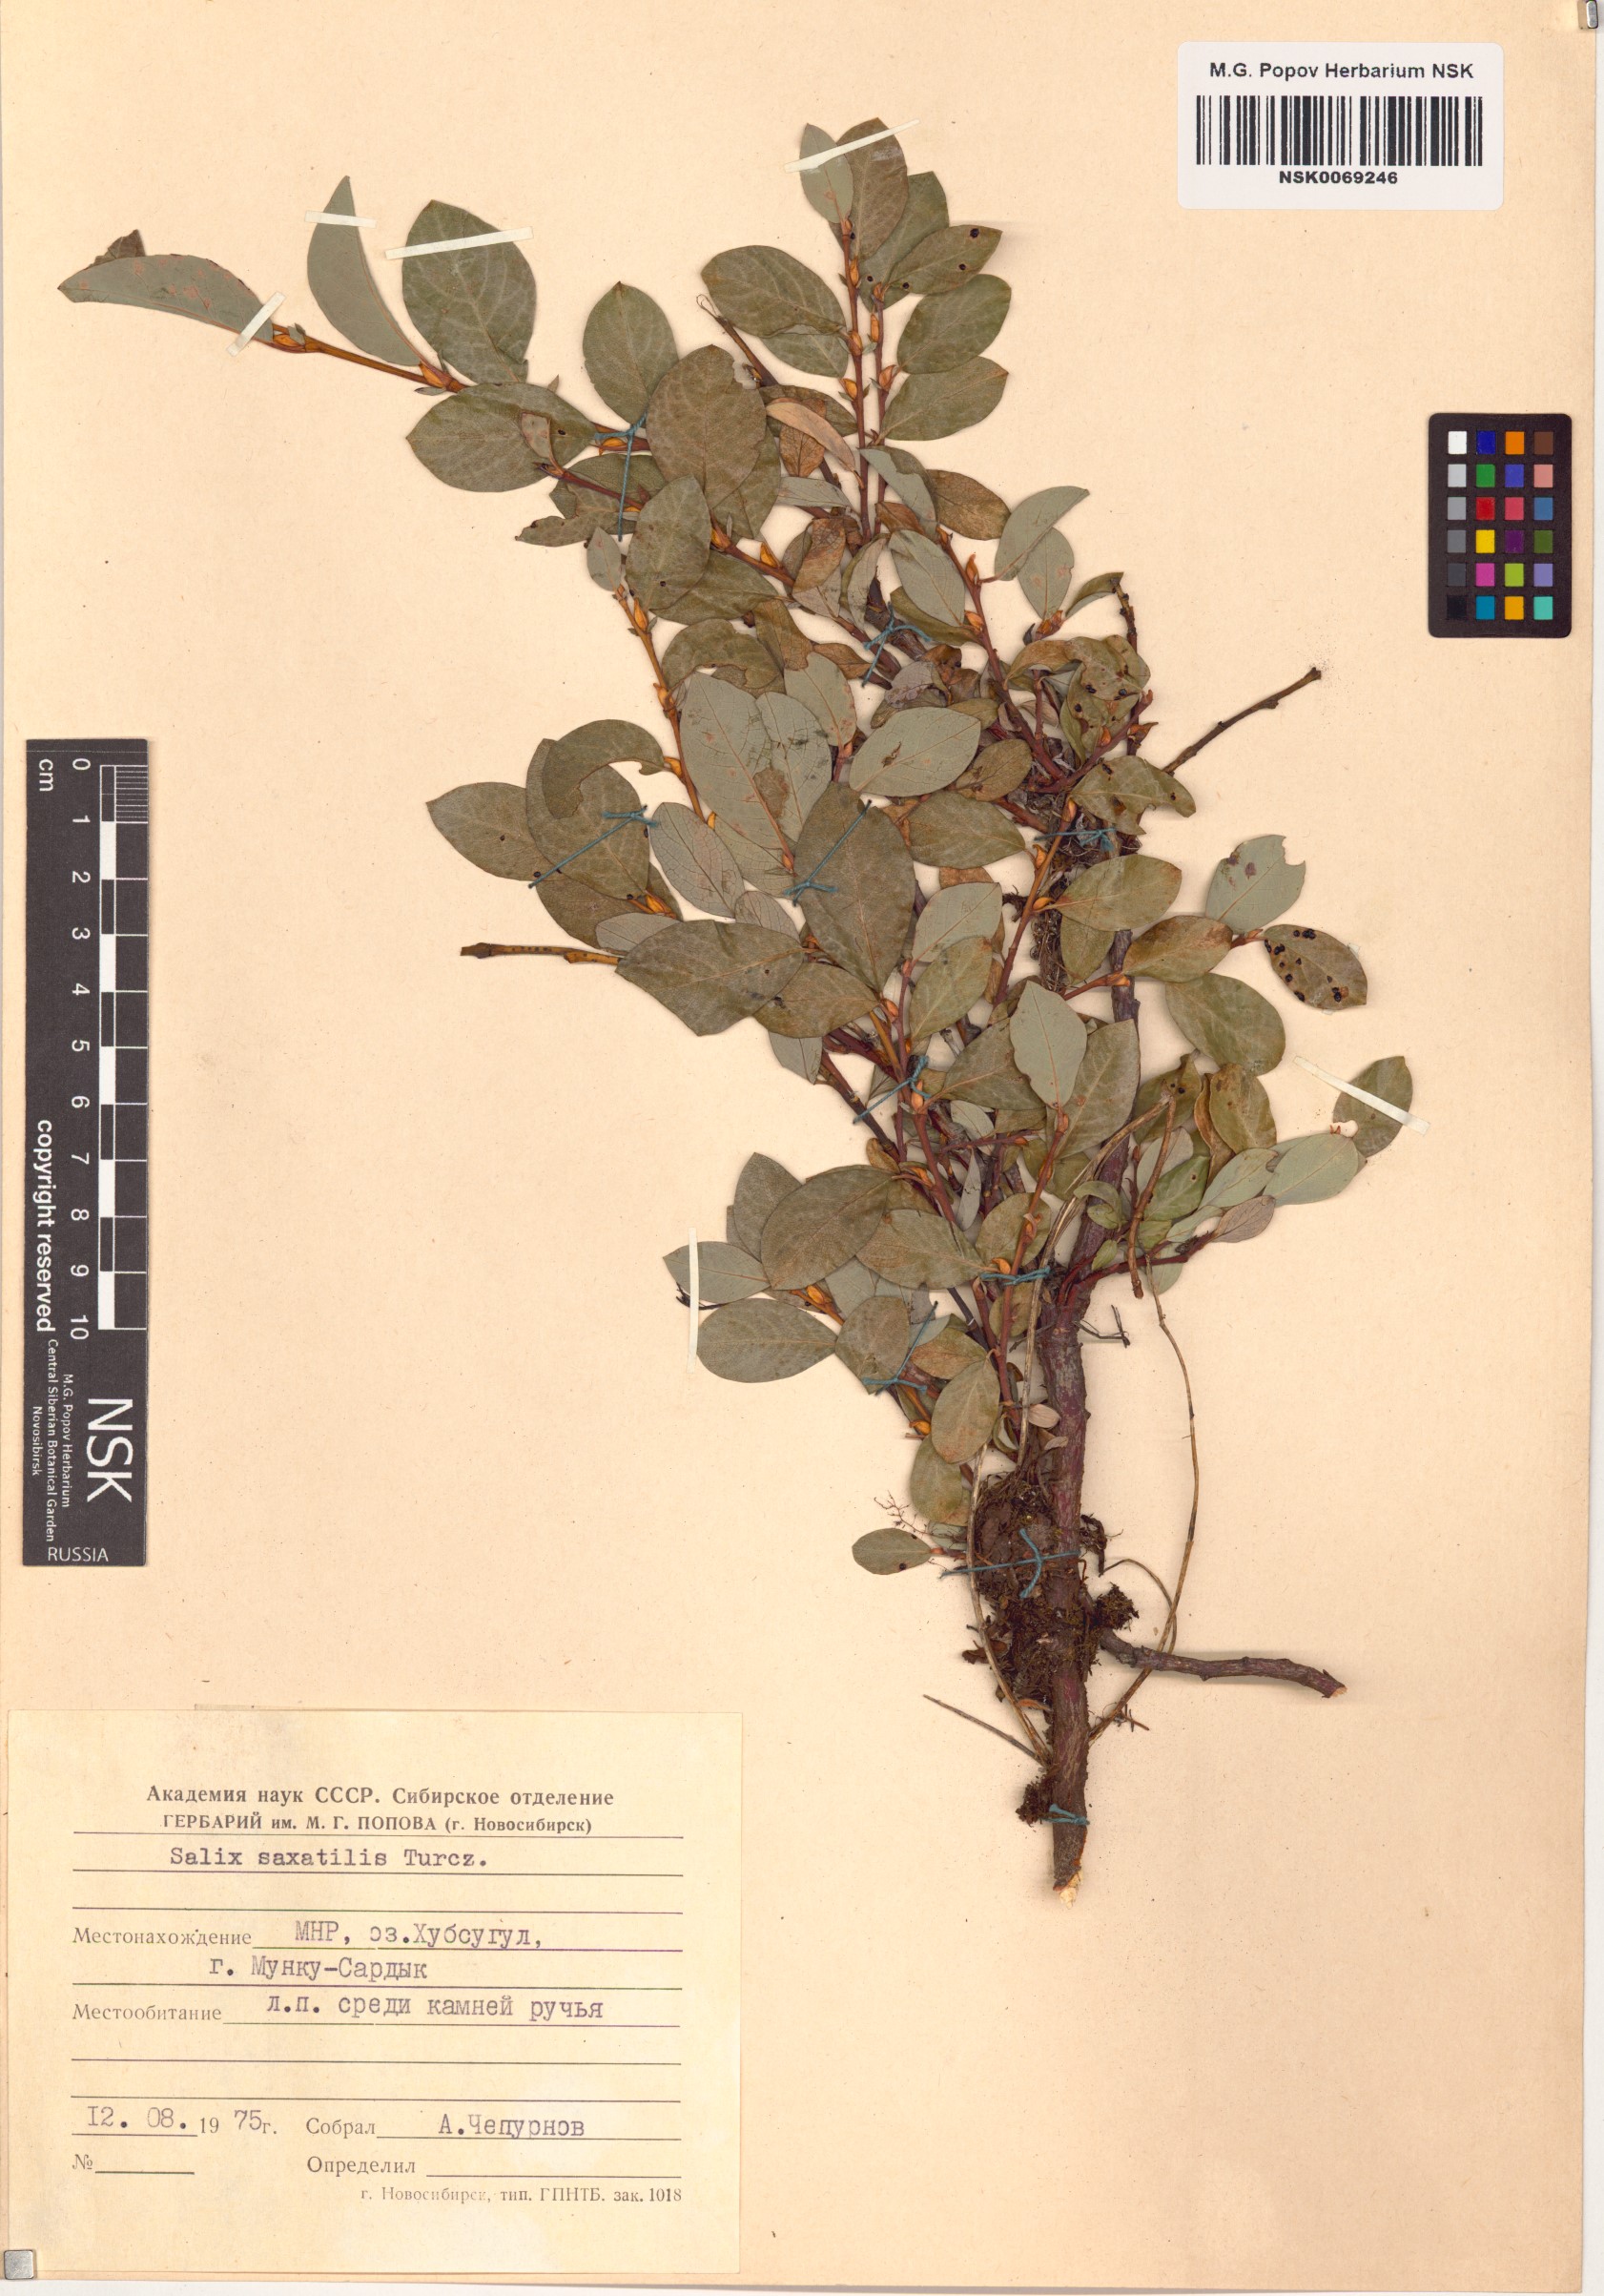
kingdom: Plantae
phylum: Tracheophyta
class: Magnoliopsida
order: Malpighiales
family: Salicaceae
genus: Salix
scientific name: Salix saxatilis
